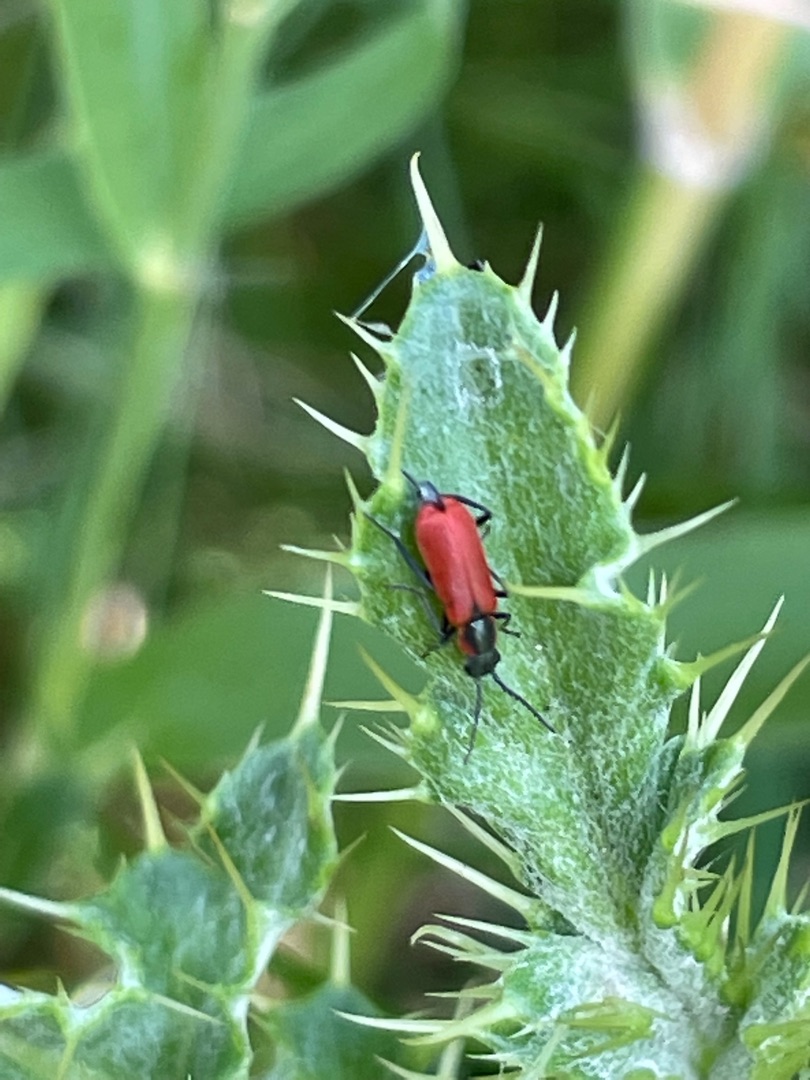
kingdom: Animalia
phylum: Arthropoda
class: Insecta
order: Coleoptera
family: Melyridae
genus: Anthocomus
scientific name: Anthocomus rufus
